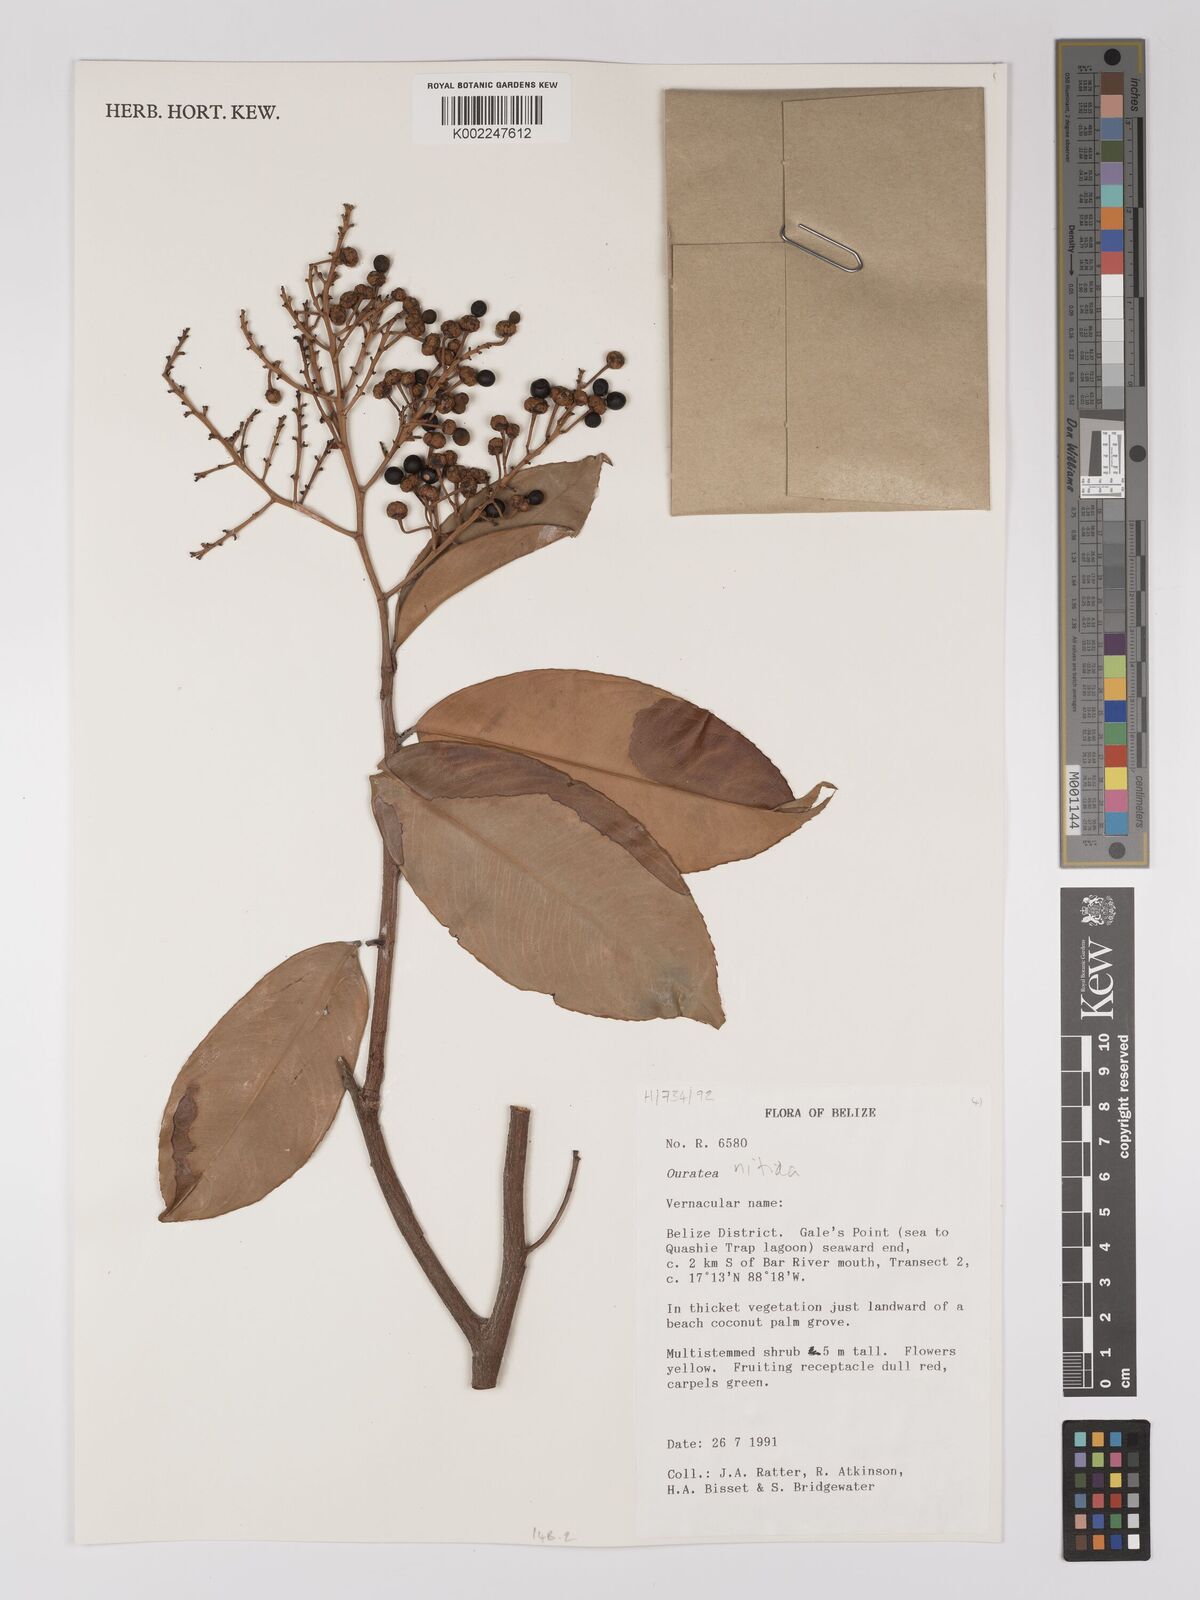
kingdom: Plantae
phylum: Tracheophyta
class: Magnoliopsida
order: Malpighiales
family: Ochnaceae
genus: Ouratea
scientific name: Ouratea
